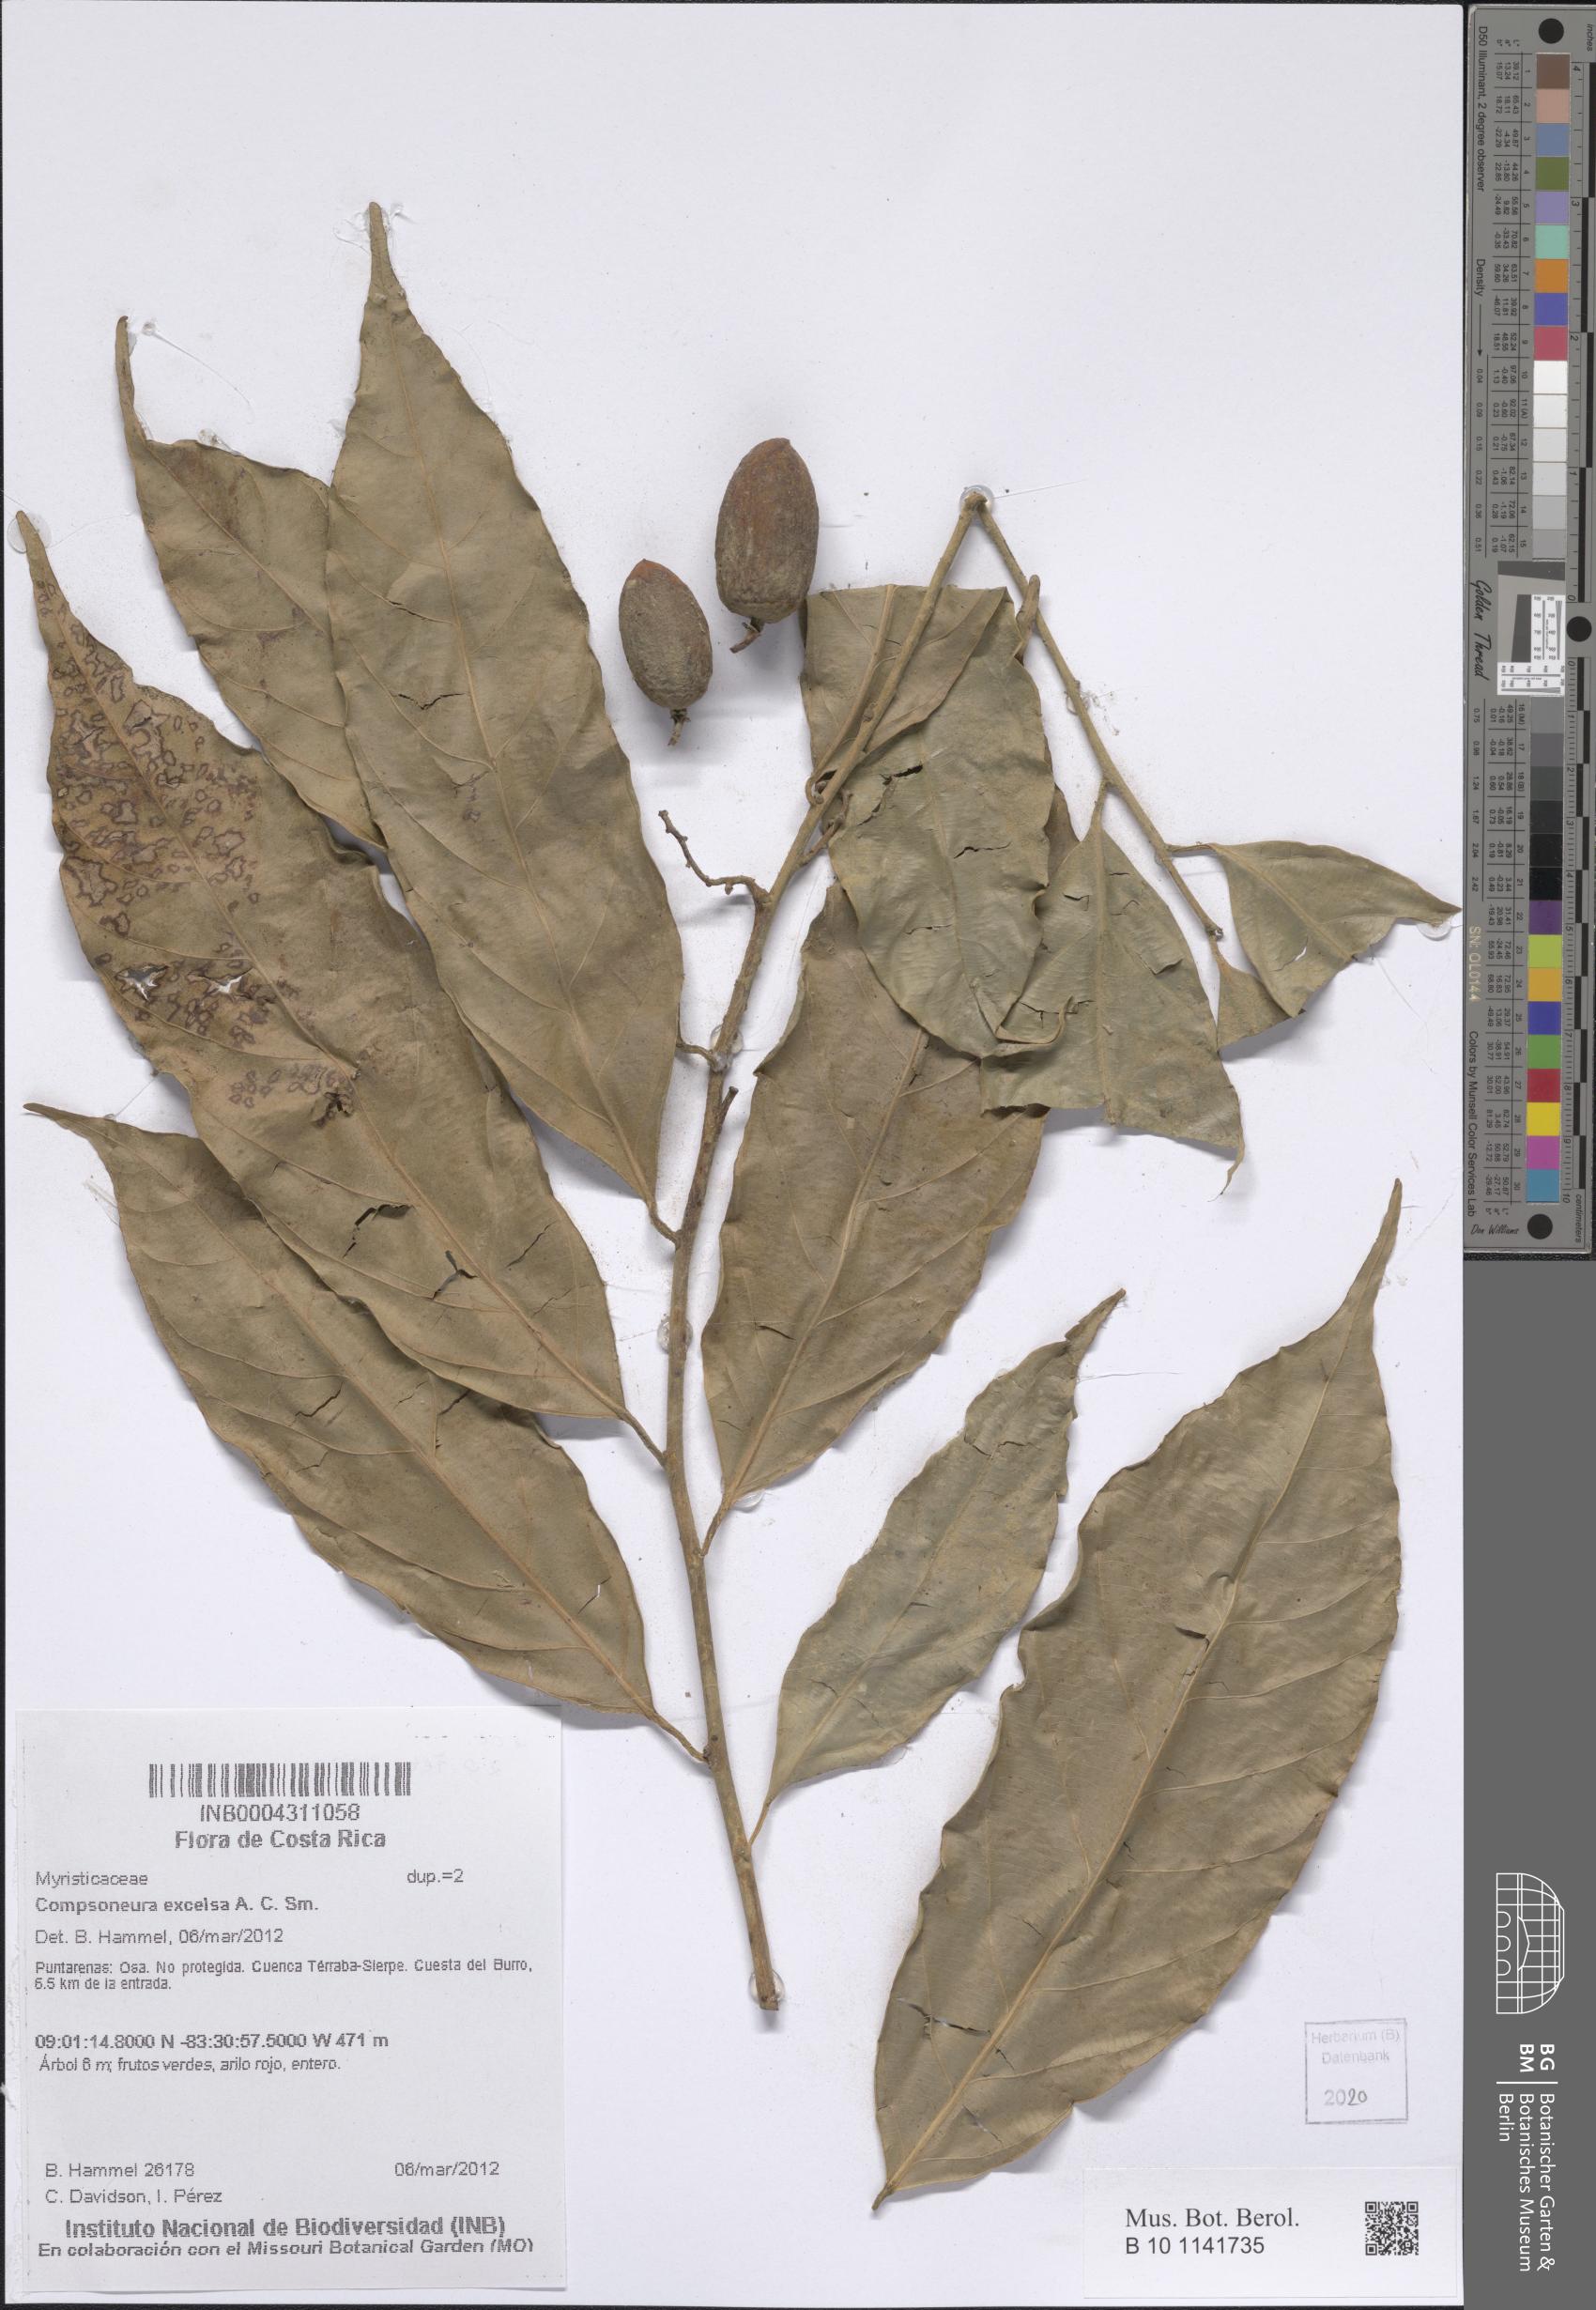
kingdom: Plantae
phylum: Tracheophyta
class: Magnoliopsida
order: Magnoliales
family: Myristicaceae
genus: Compsoneura
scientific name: Compsoneura excelsa
